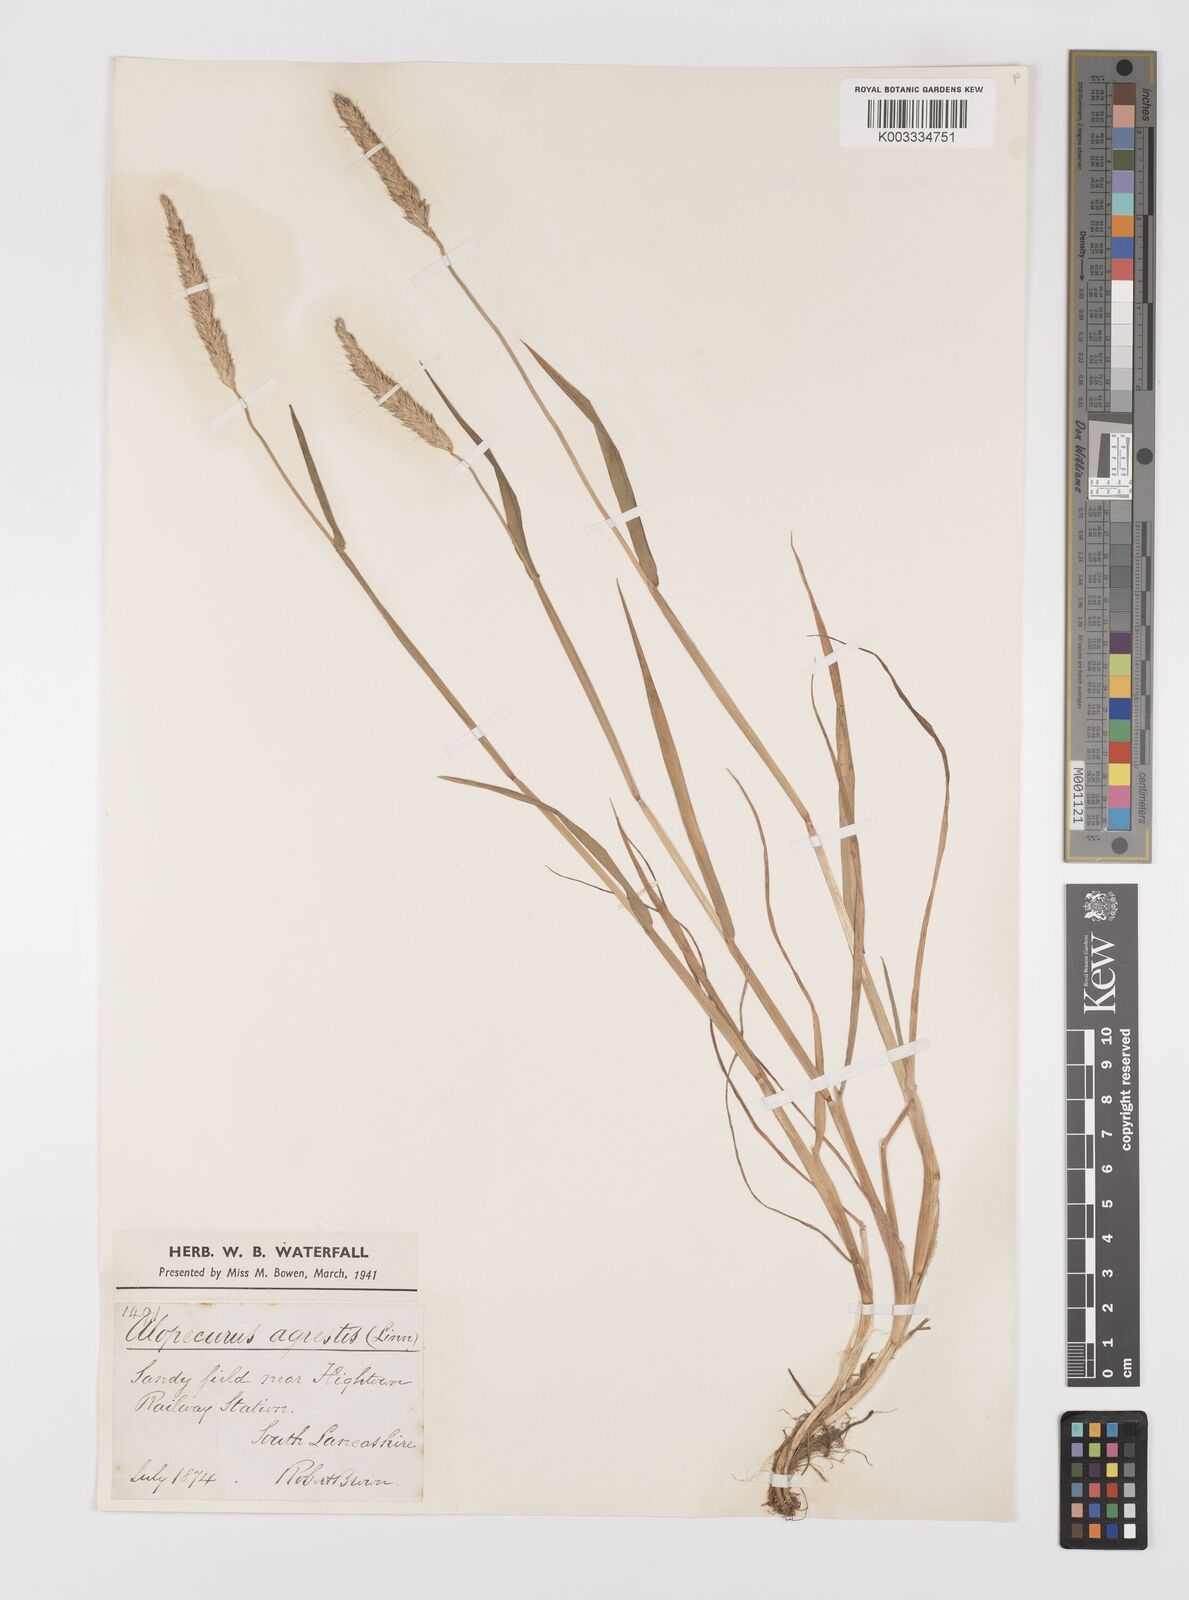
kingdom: Plantae
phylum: Tracheophyta
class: Liliopsida
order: Poales
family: Poaceae
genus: Alopecurus
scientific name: Alopecurus myosuroides
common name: Black-grass
